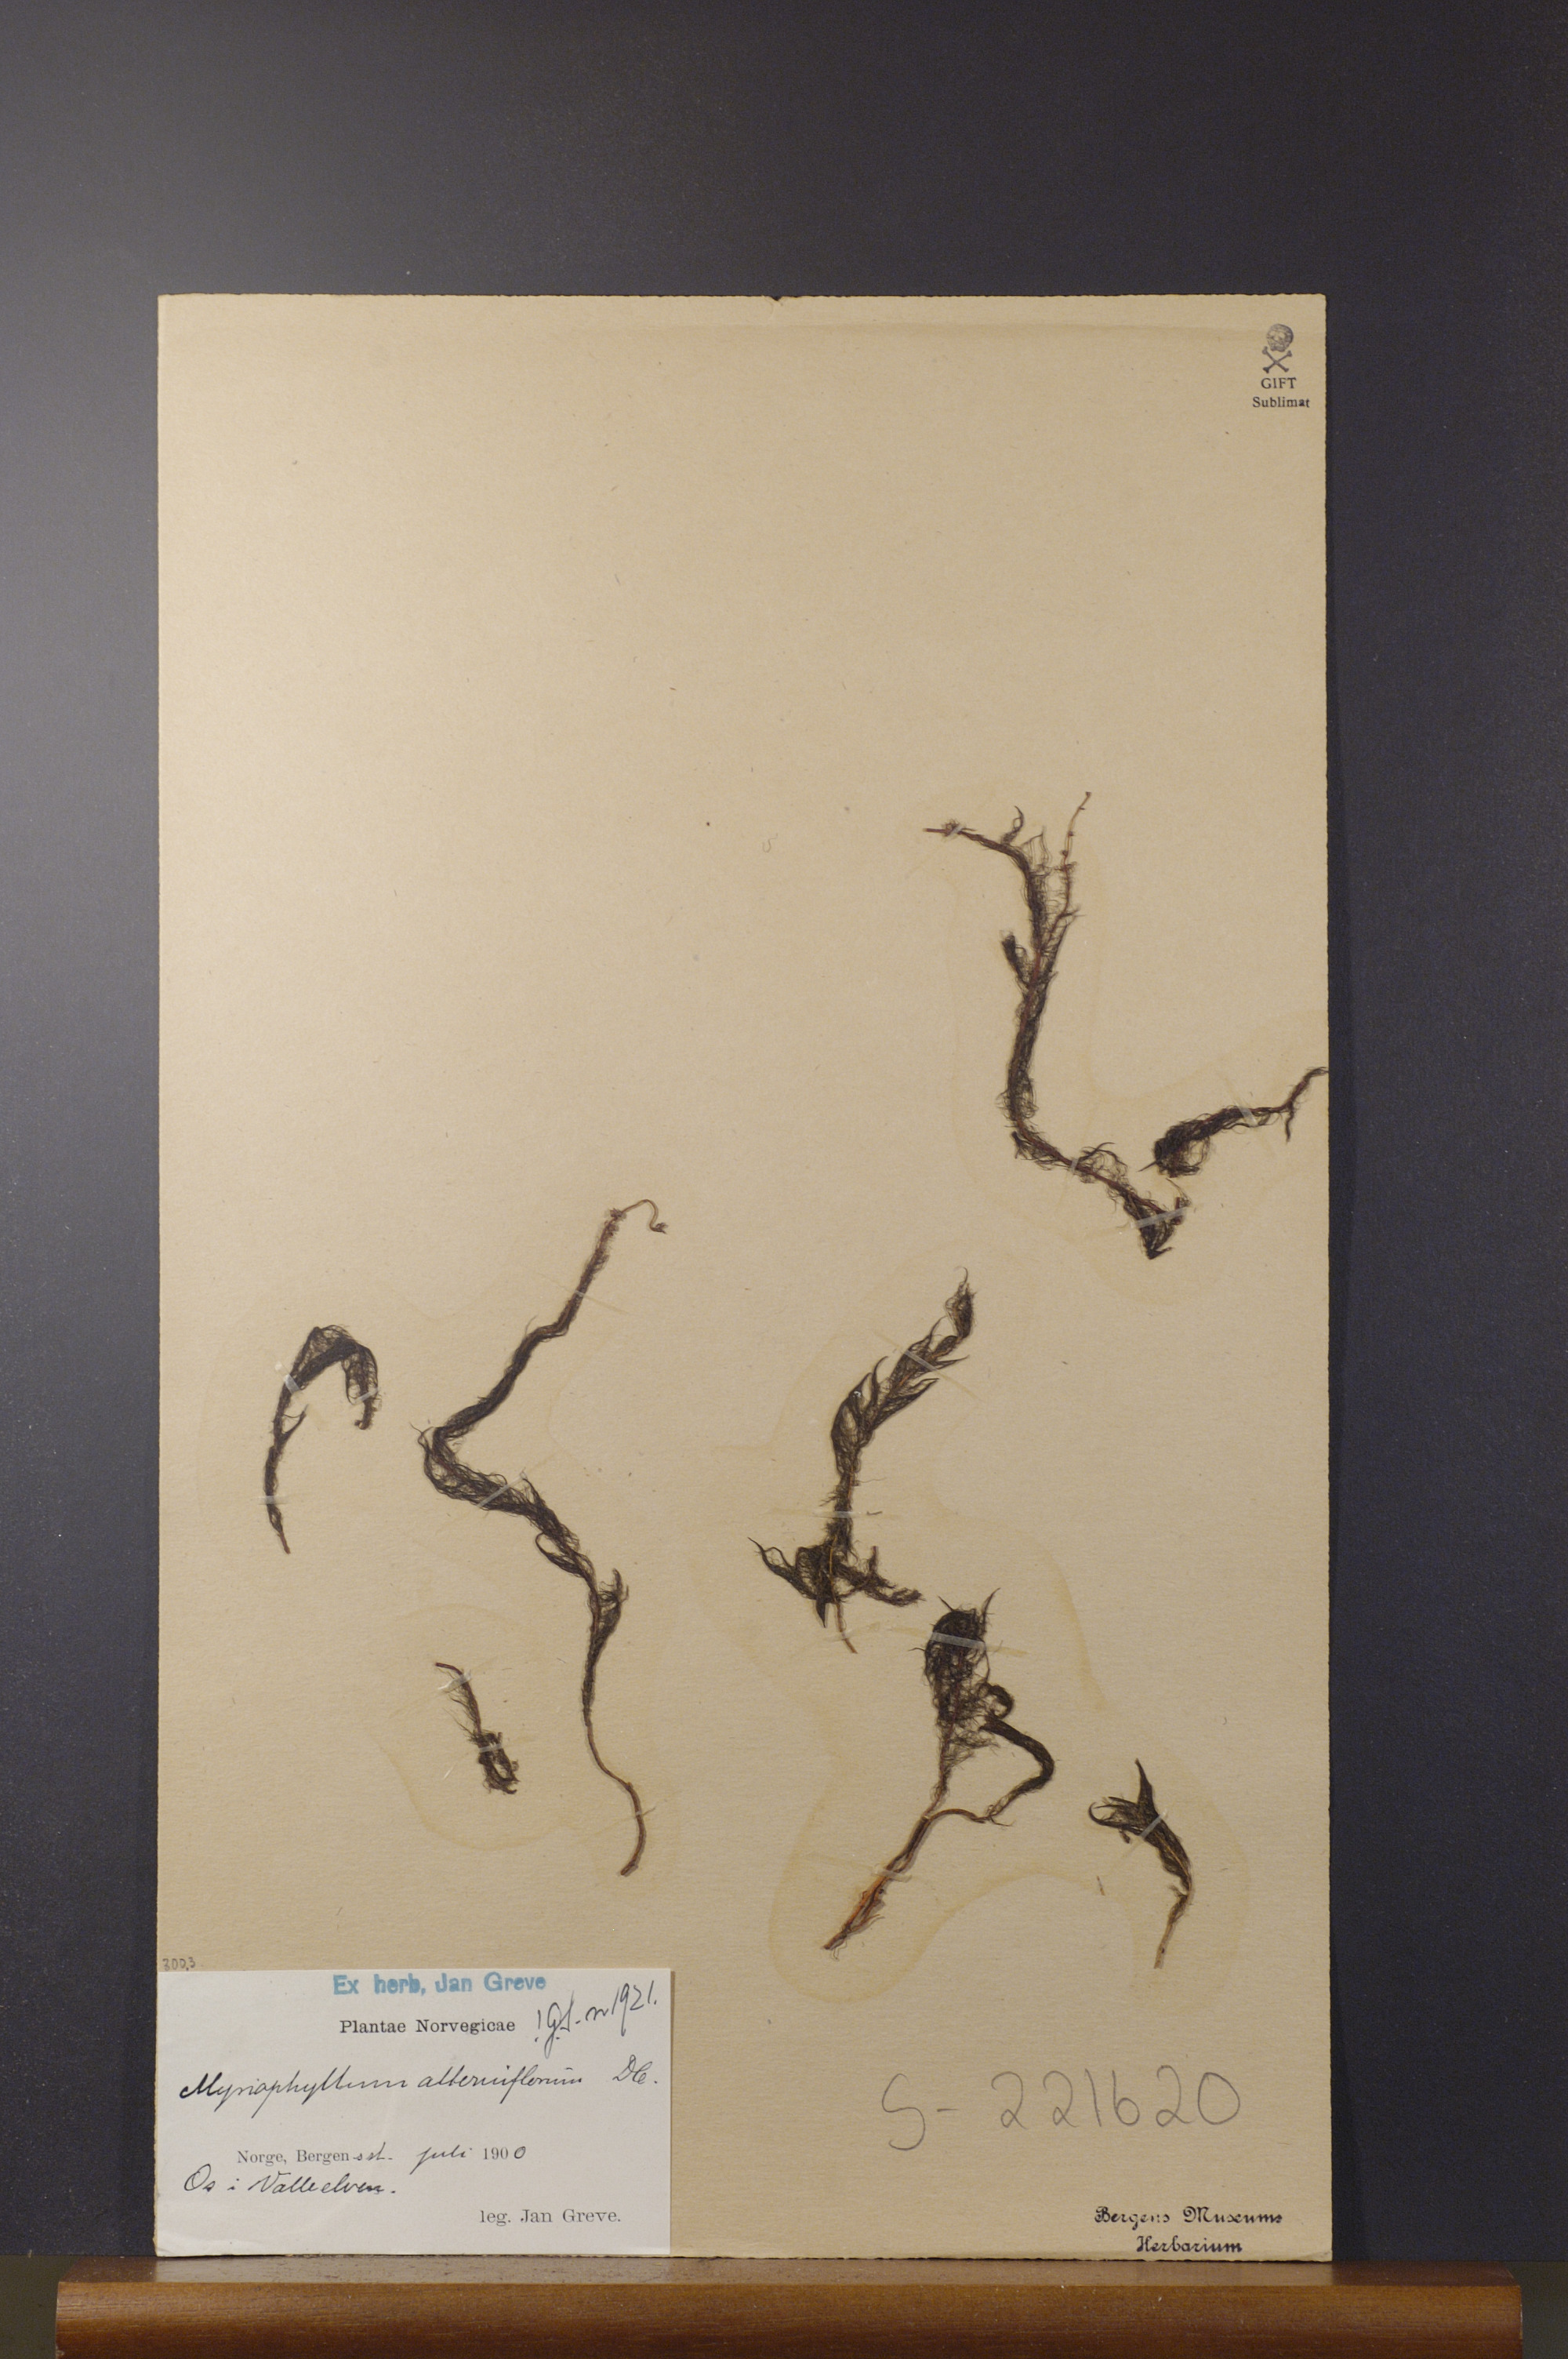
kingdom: Plantae
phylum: Tracheophyta
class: Magnoliopsida
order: Saxifragales
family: Haloragaceae
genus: Myriophyllum
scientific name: Myriophyllum alterniflorum
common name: Alternate water-milfoil
